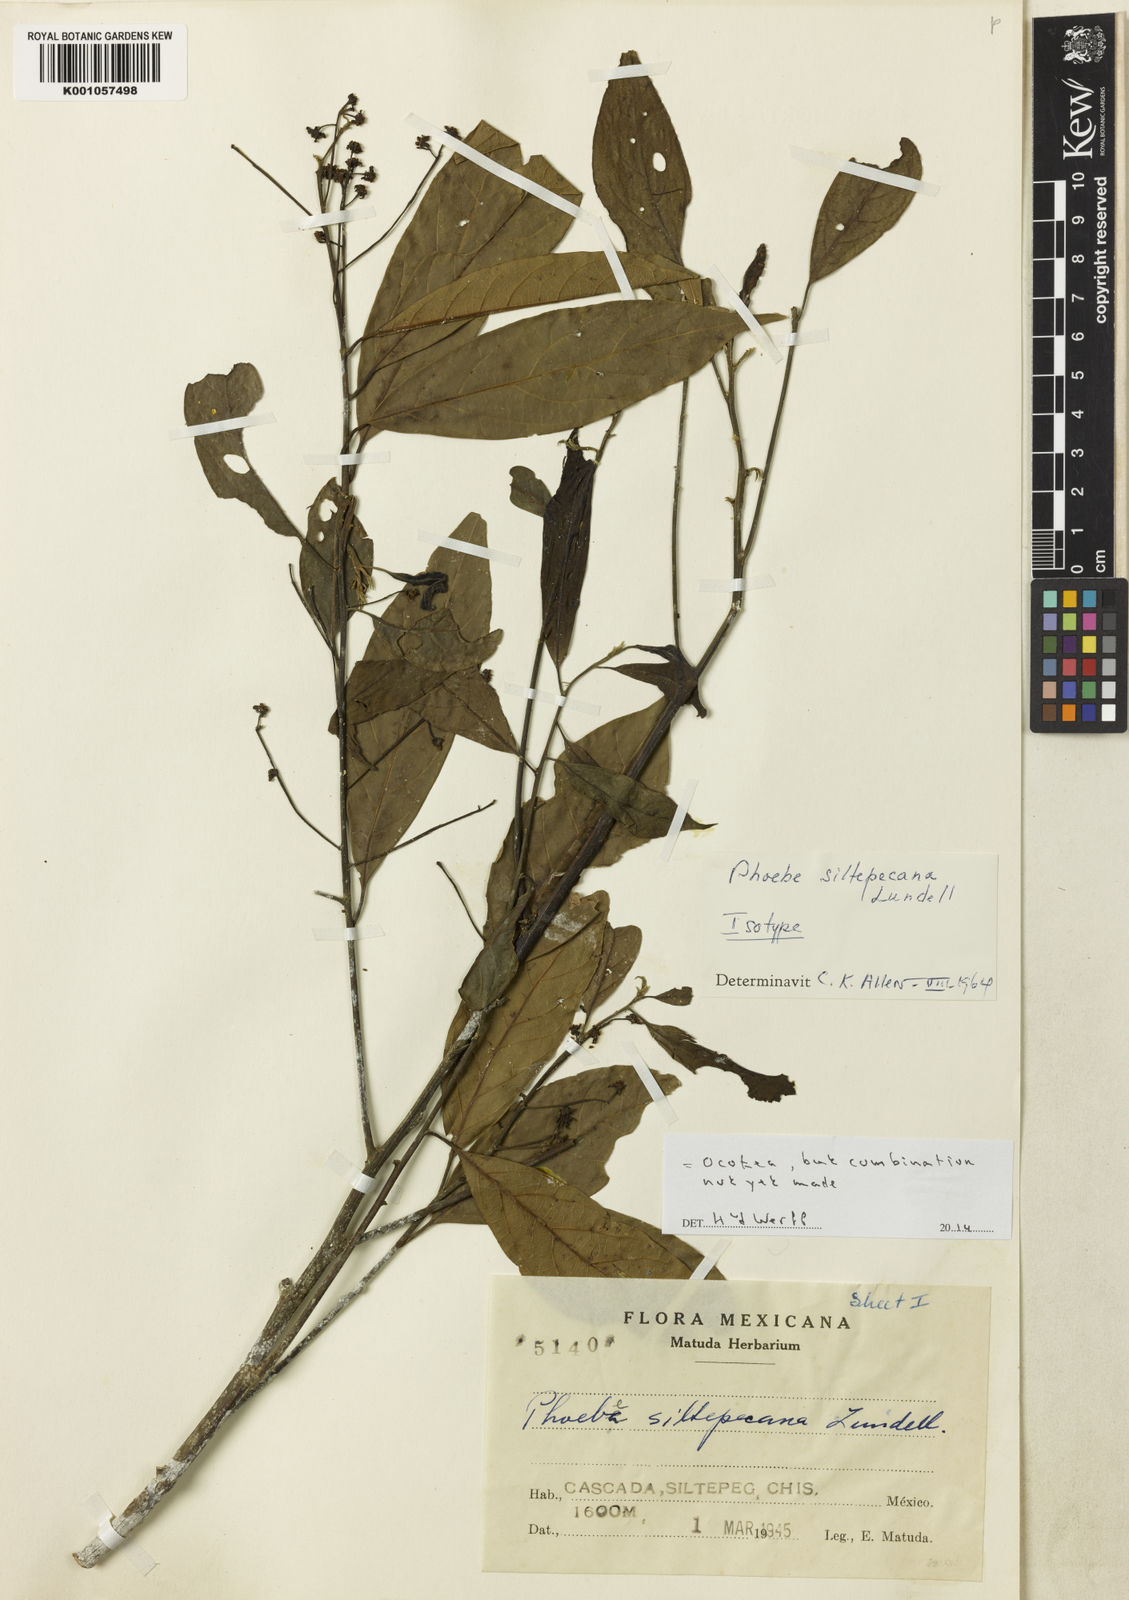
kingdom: Plantae
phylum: Tracheophyta
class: Magnoliopsida
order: Laurales
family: Lauraceae
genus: Ocotea
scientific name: Ocotea
